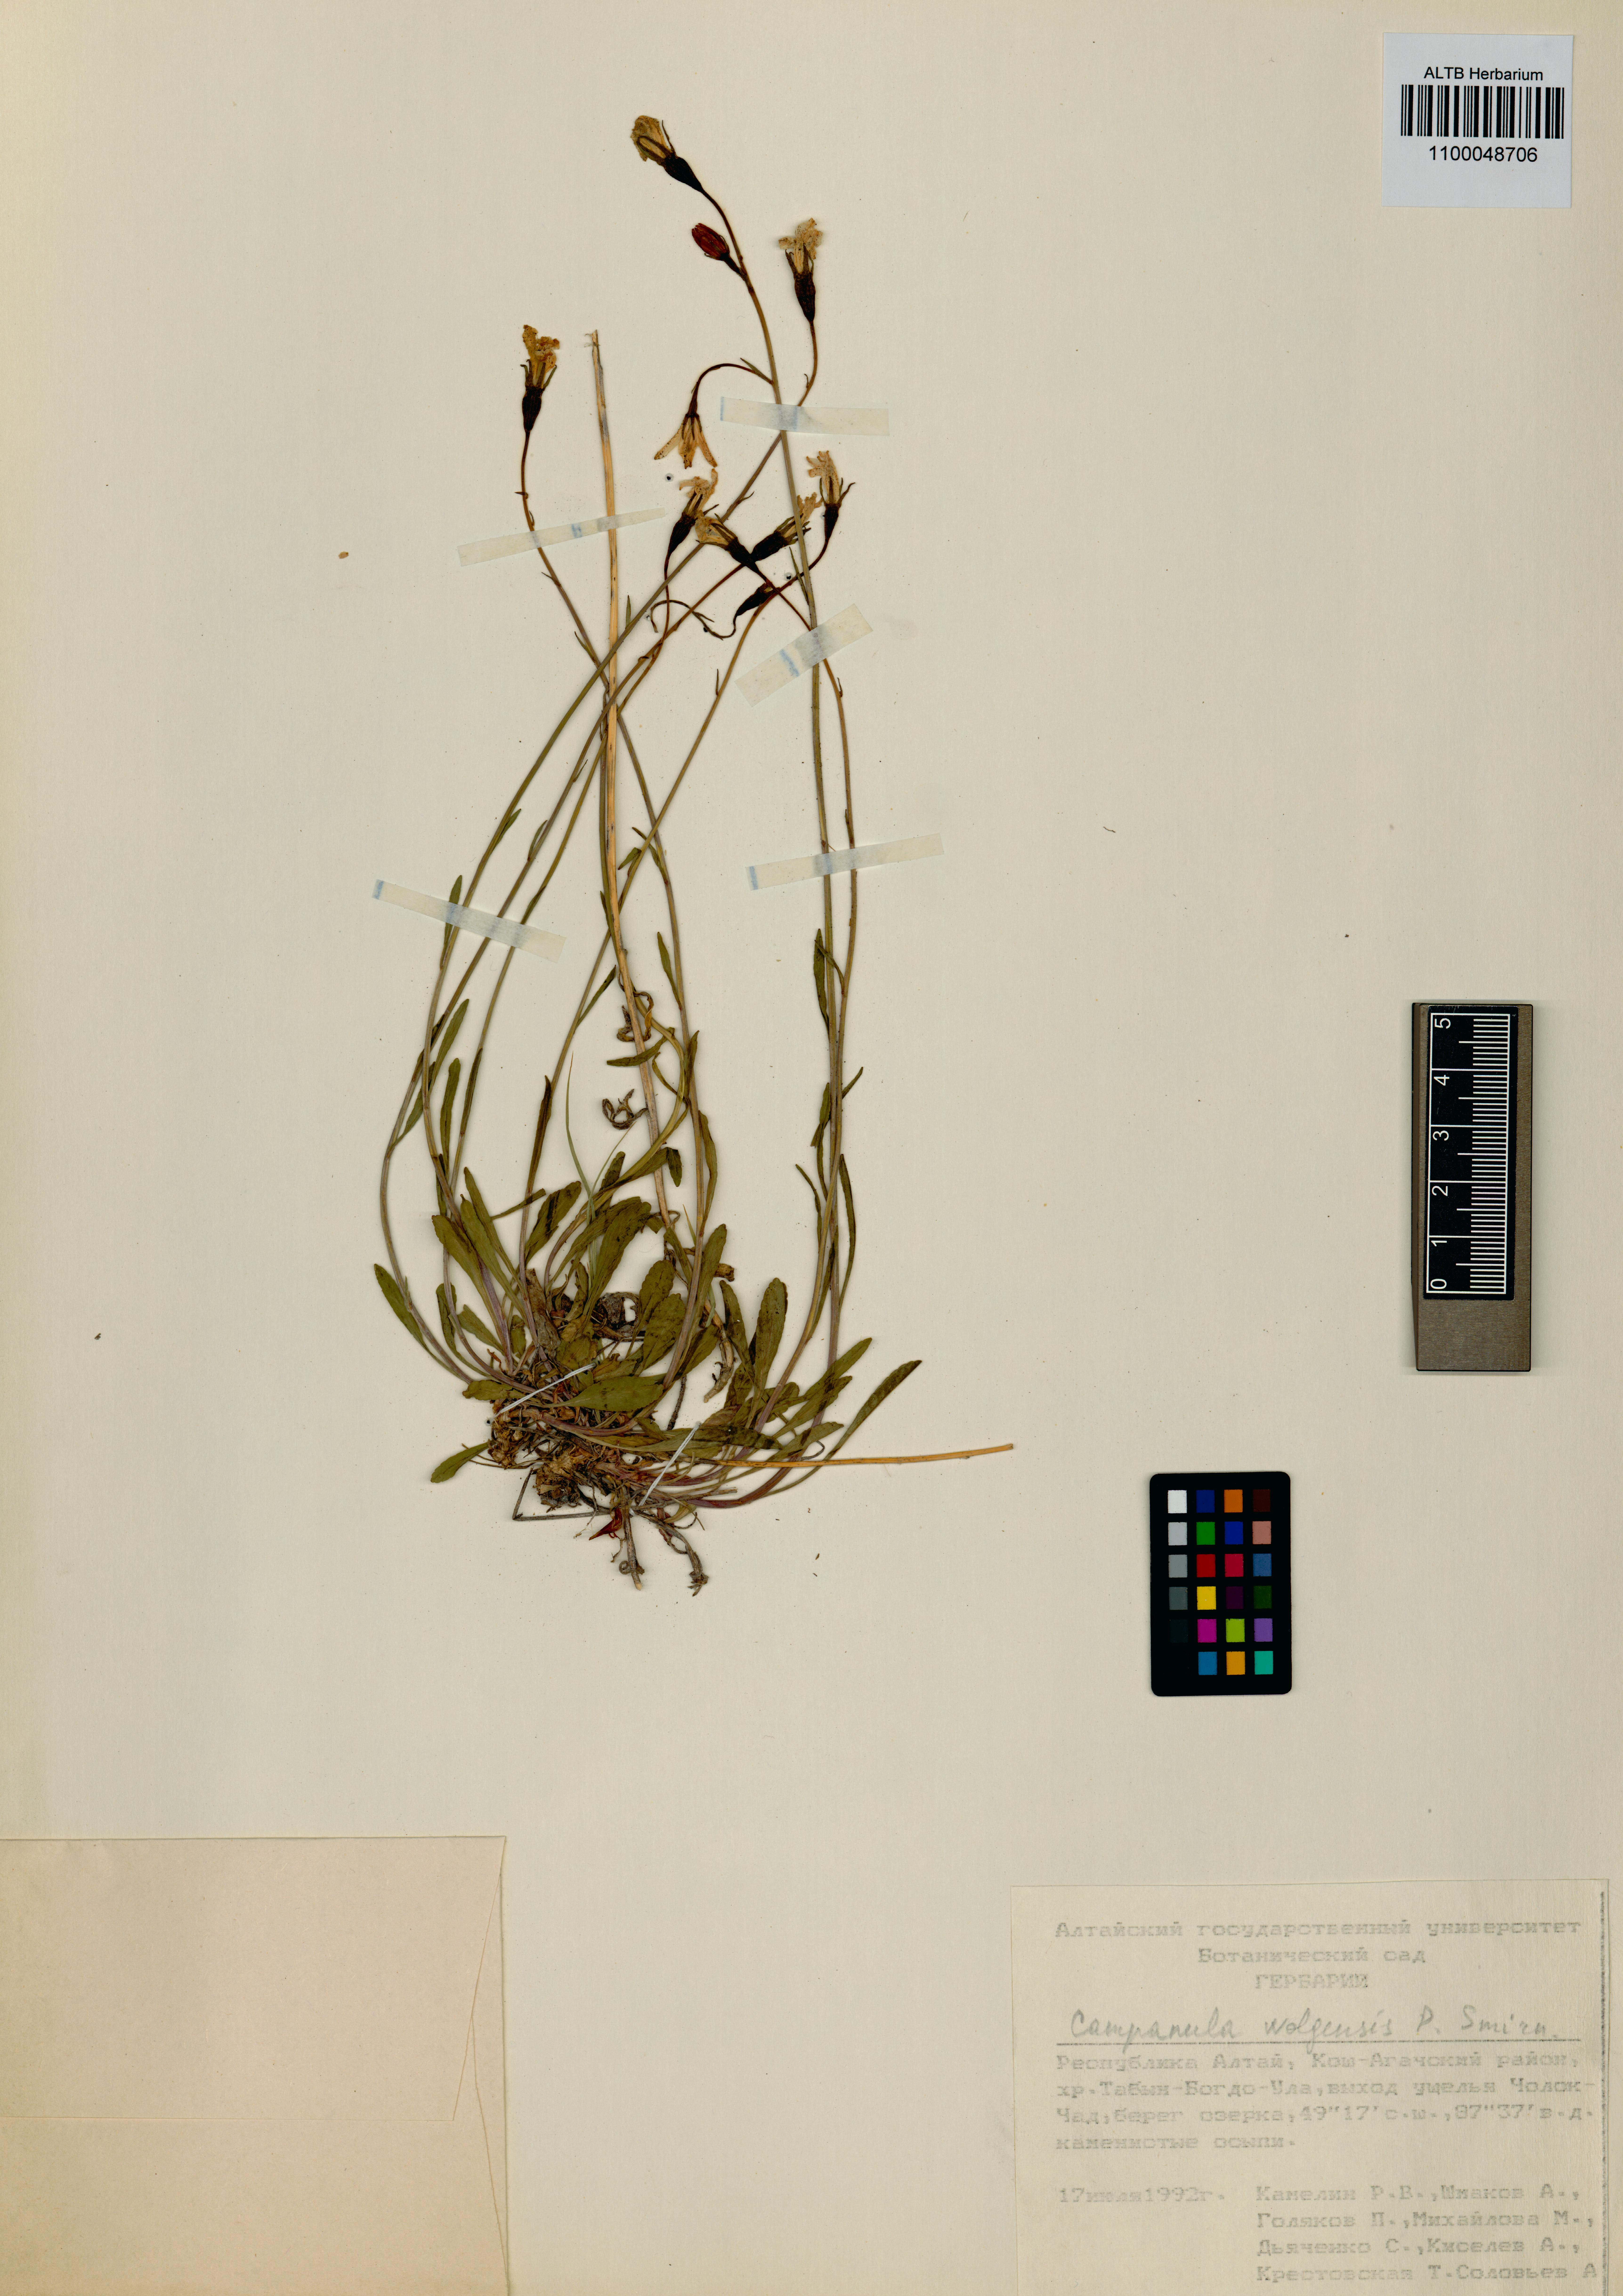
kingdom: Plantae
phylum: Tracheophyta
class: Magnoliopsida
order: Asterales
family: Campanulaceae
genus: Campanula
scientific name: Campanula stevenii
